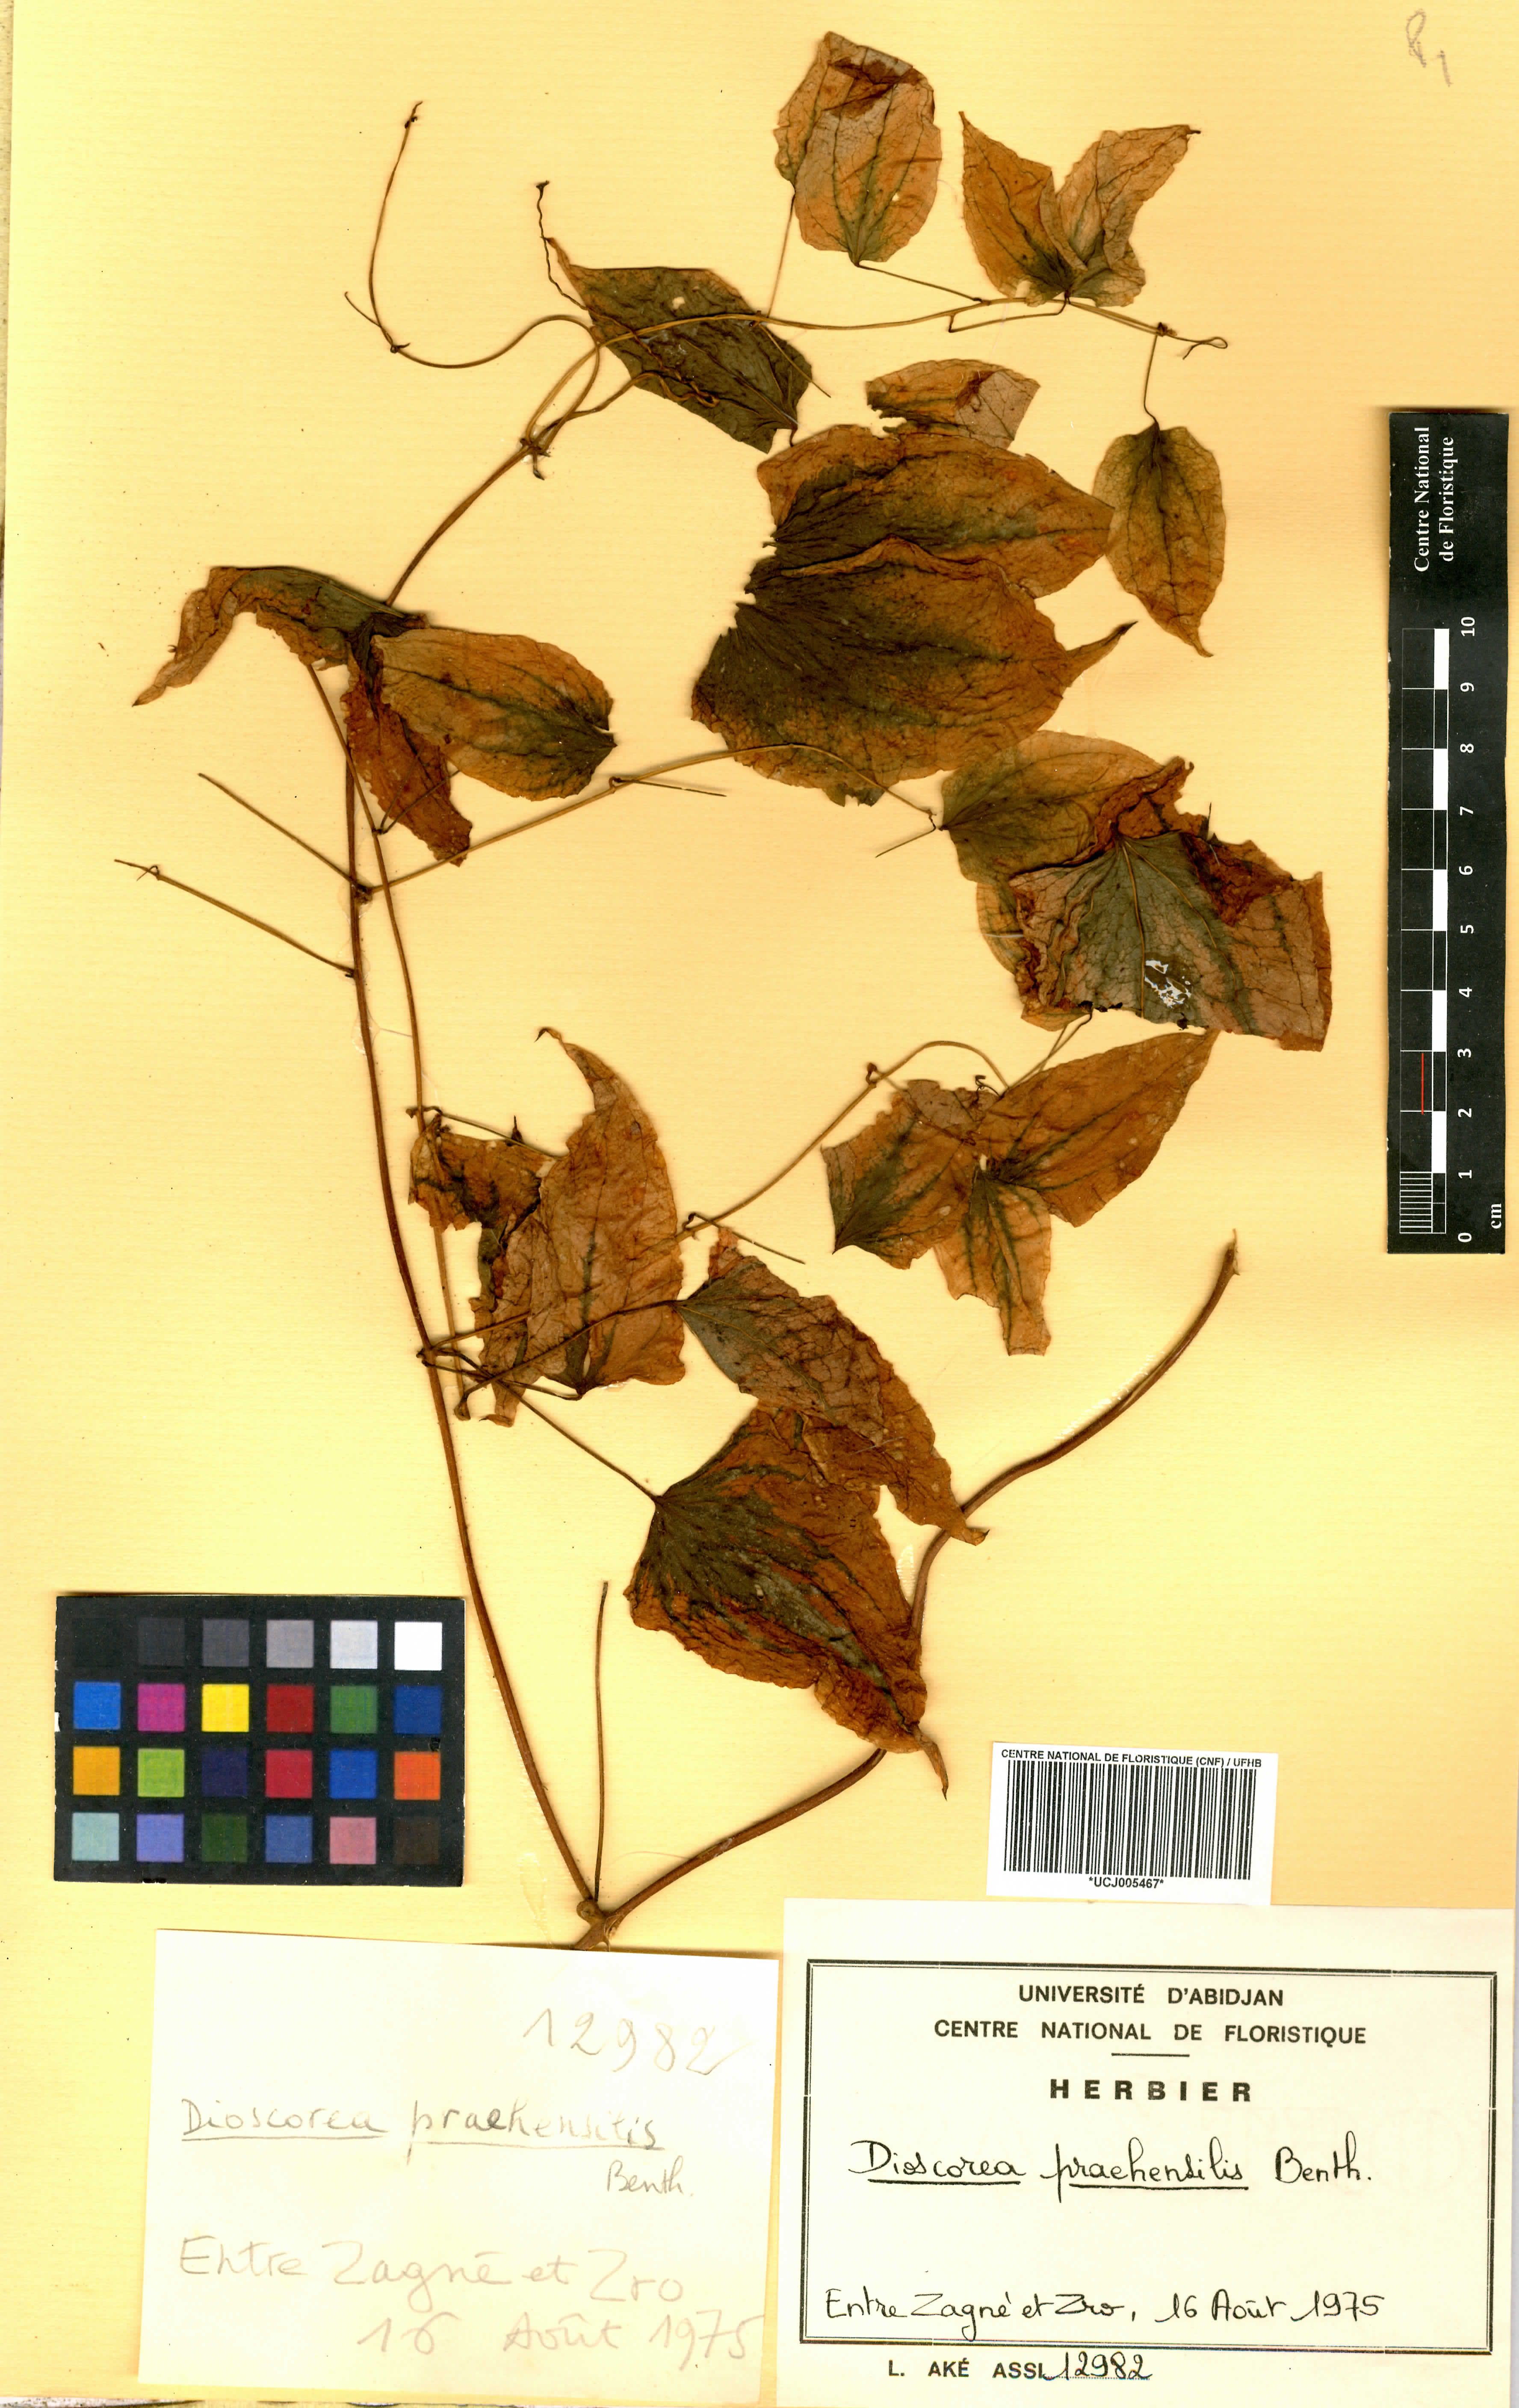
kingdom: Plantae
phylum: Tracheophyta
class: Liliopsida
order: Dioscoreales
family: Dioscoreaceae
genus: Dioscorea
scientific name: Dioscorea praehensilis
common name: Bush yam
